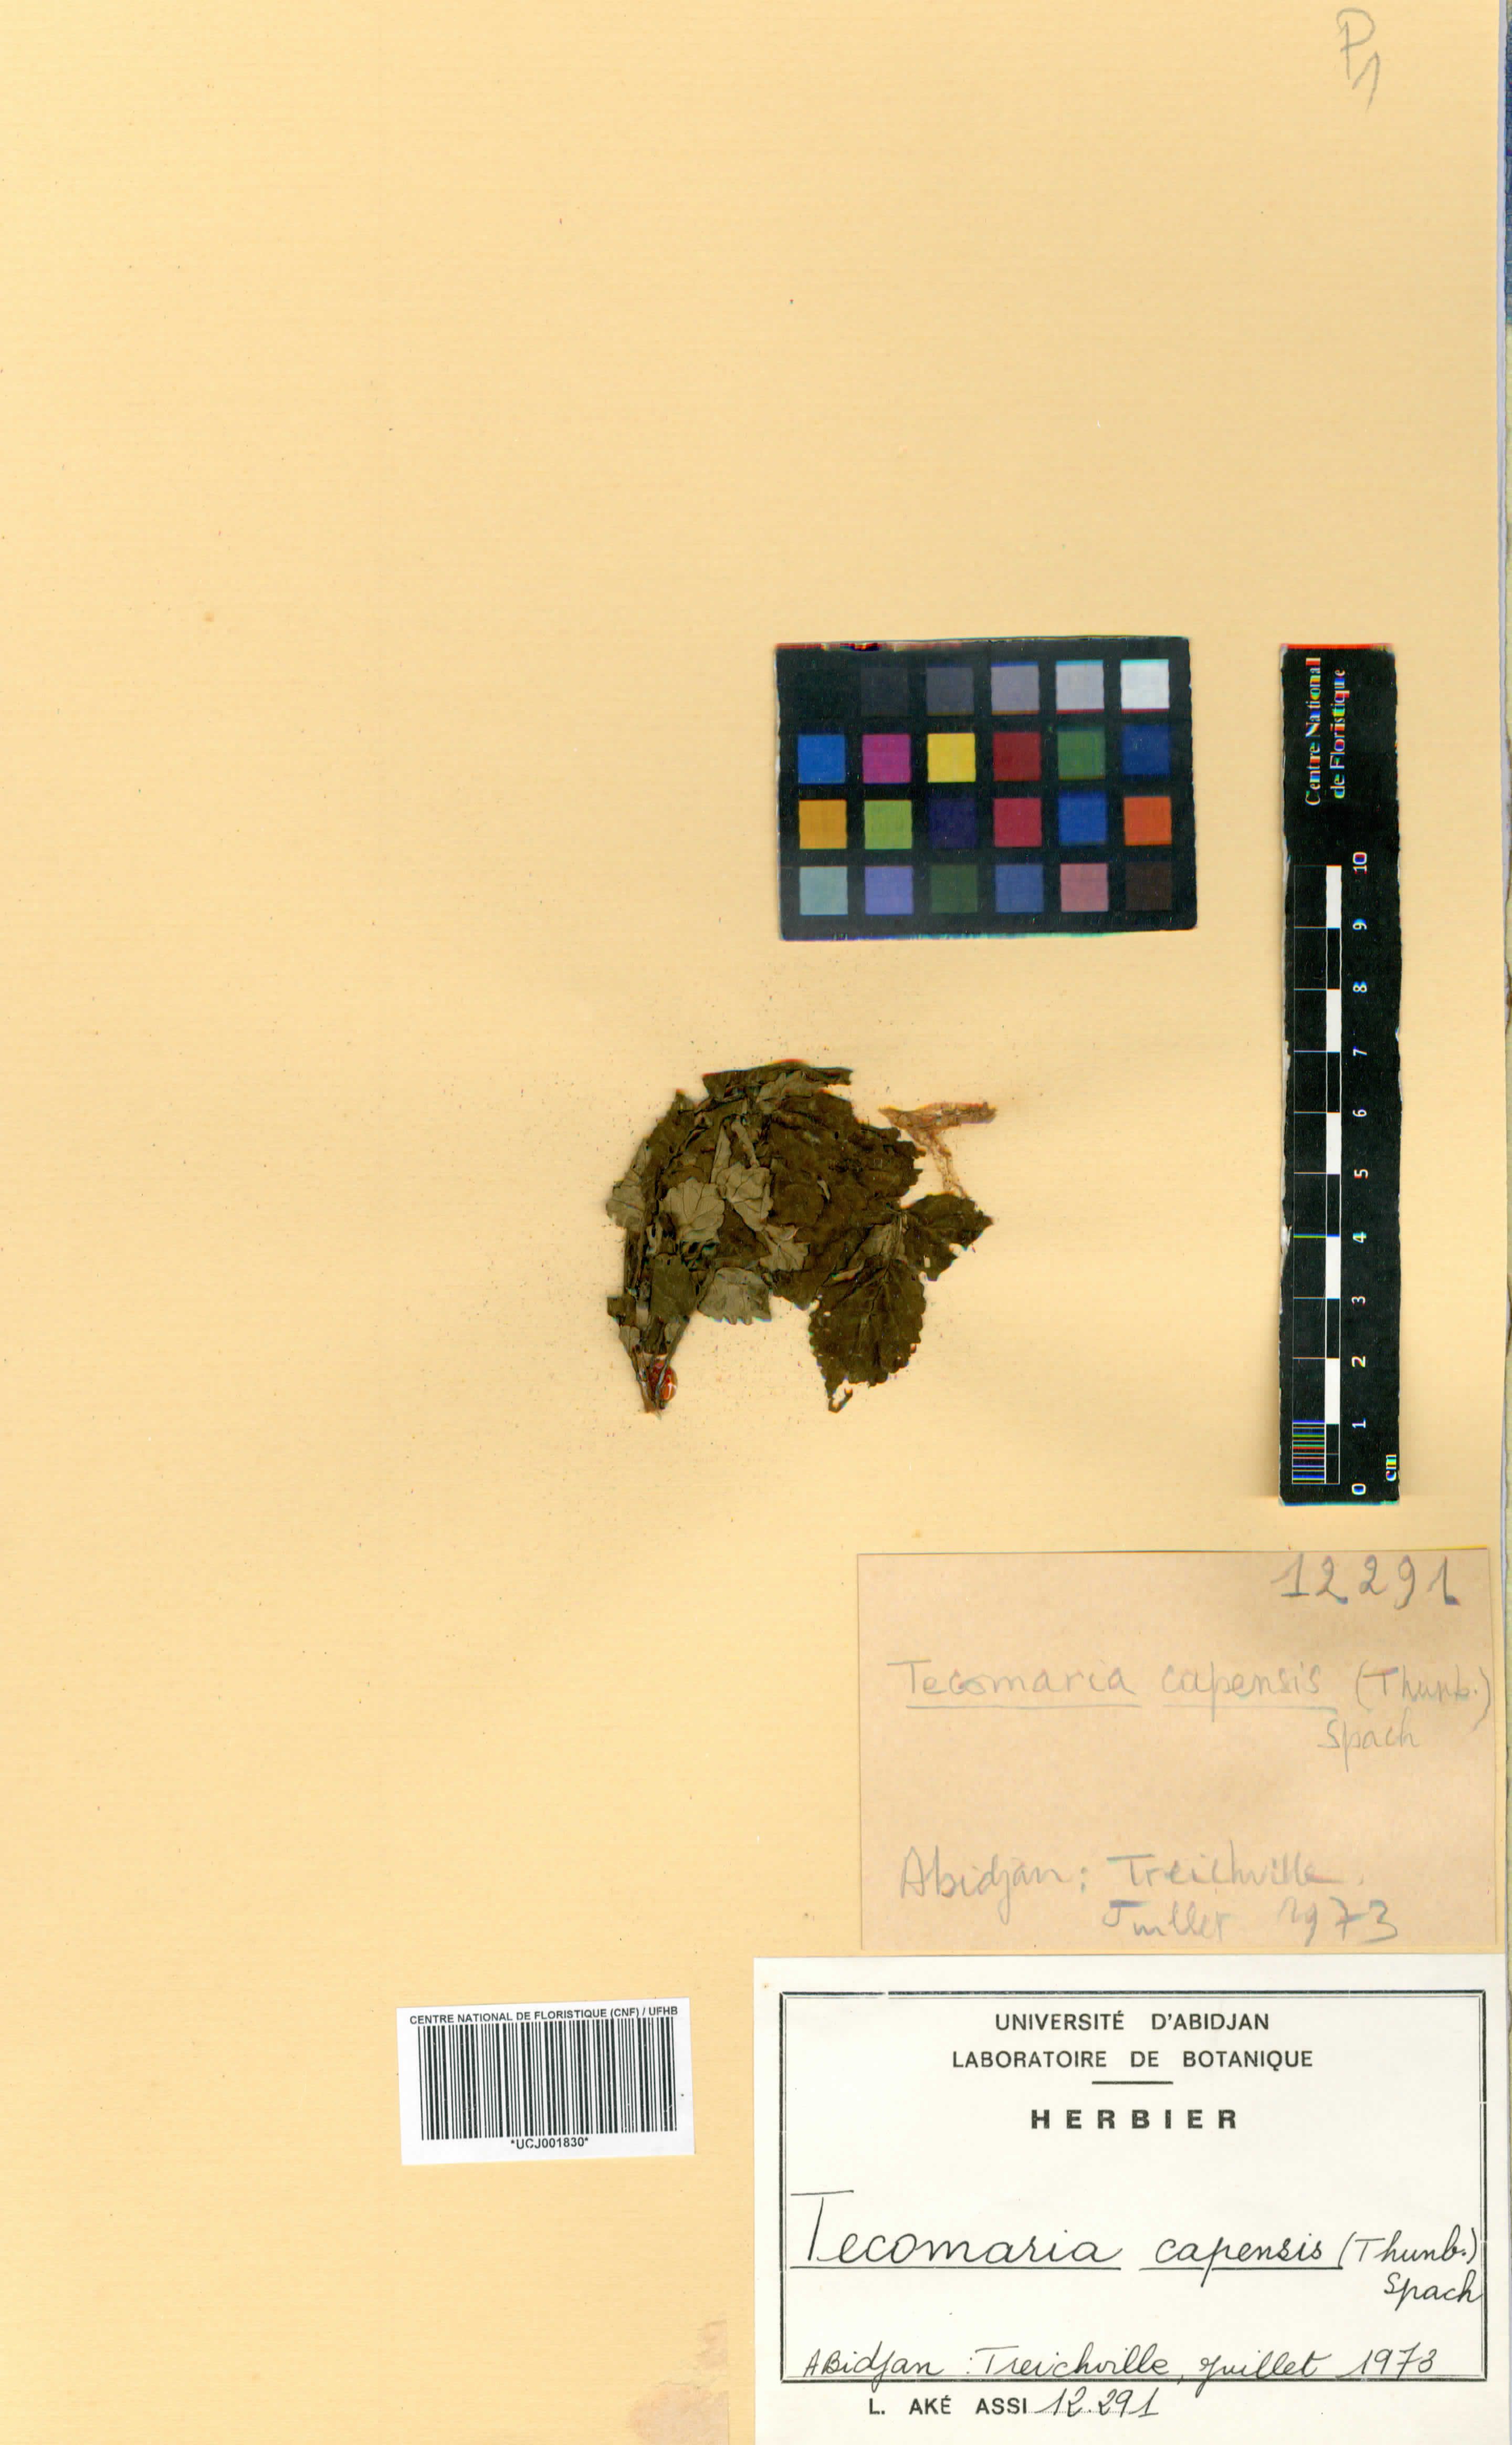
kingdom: Plantae
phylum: Tracheophyta
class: Magnoliopsida
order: Lamiales
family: Bignoniaceae
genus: Tecomaria
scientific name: Tecomaria capensis
